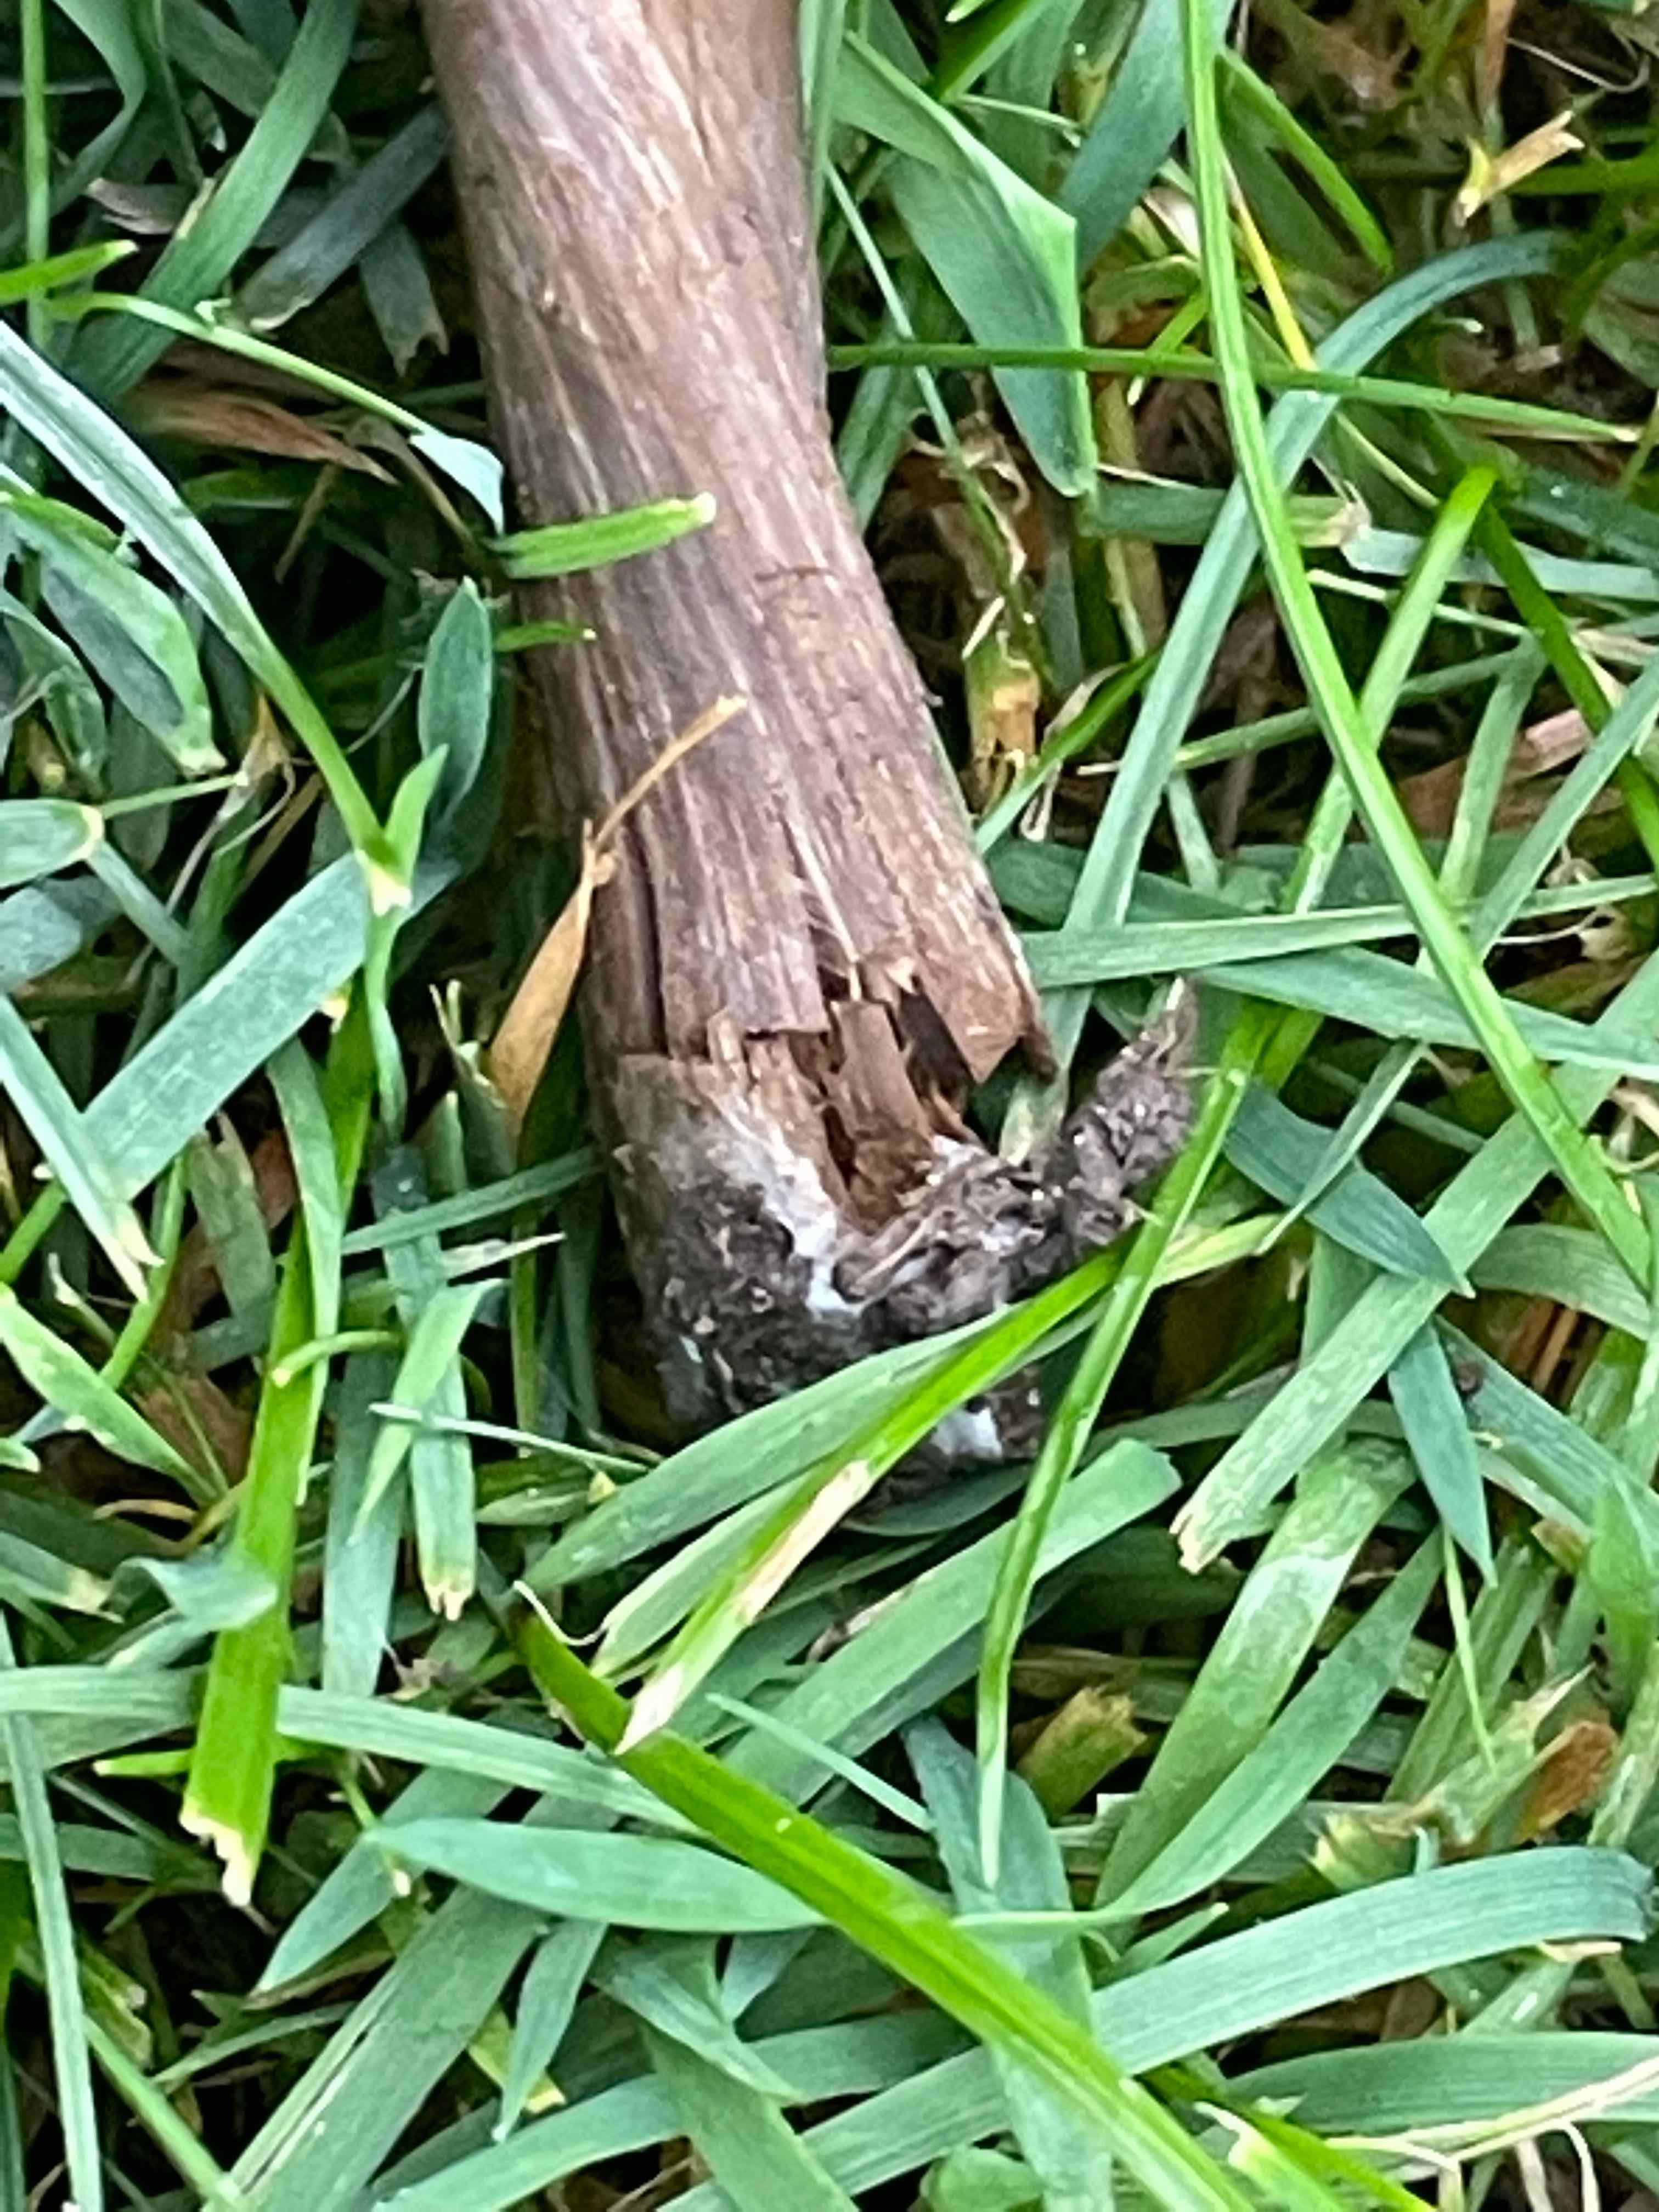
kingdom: Fungi
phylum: Basidiomycota
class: Agaricomycetes
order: Agaricales
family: Tricholomataceae
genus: Melanoleuca
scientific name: Melanoleuca
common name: munkehat
